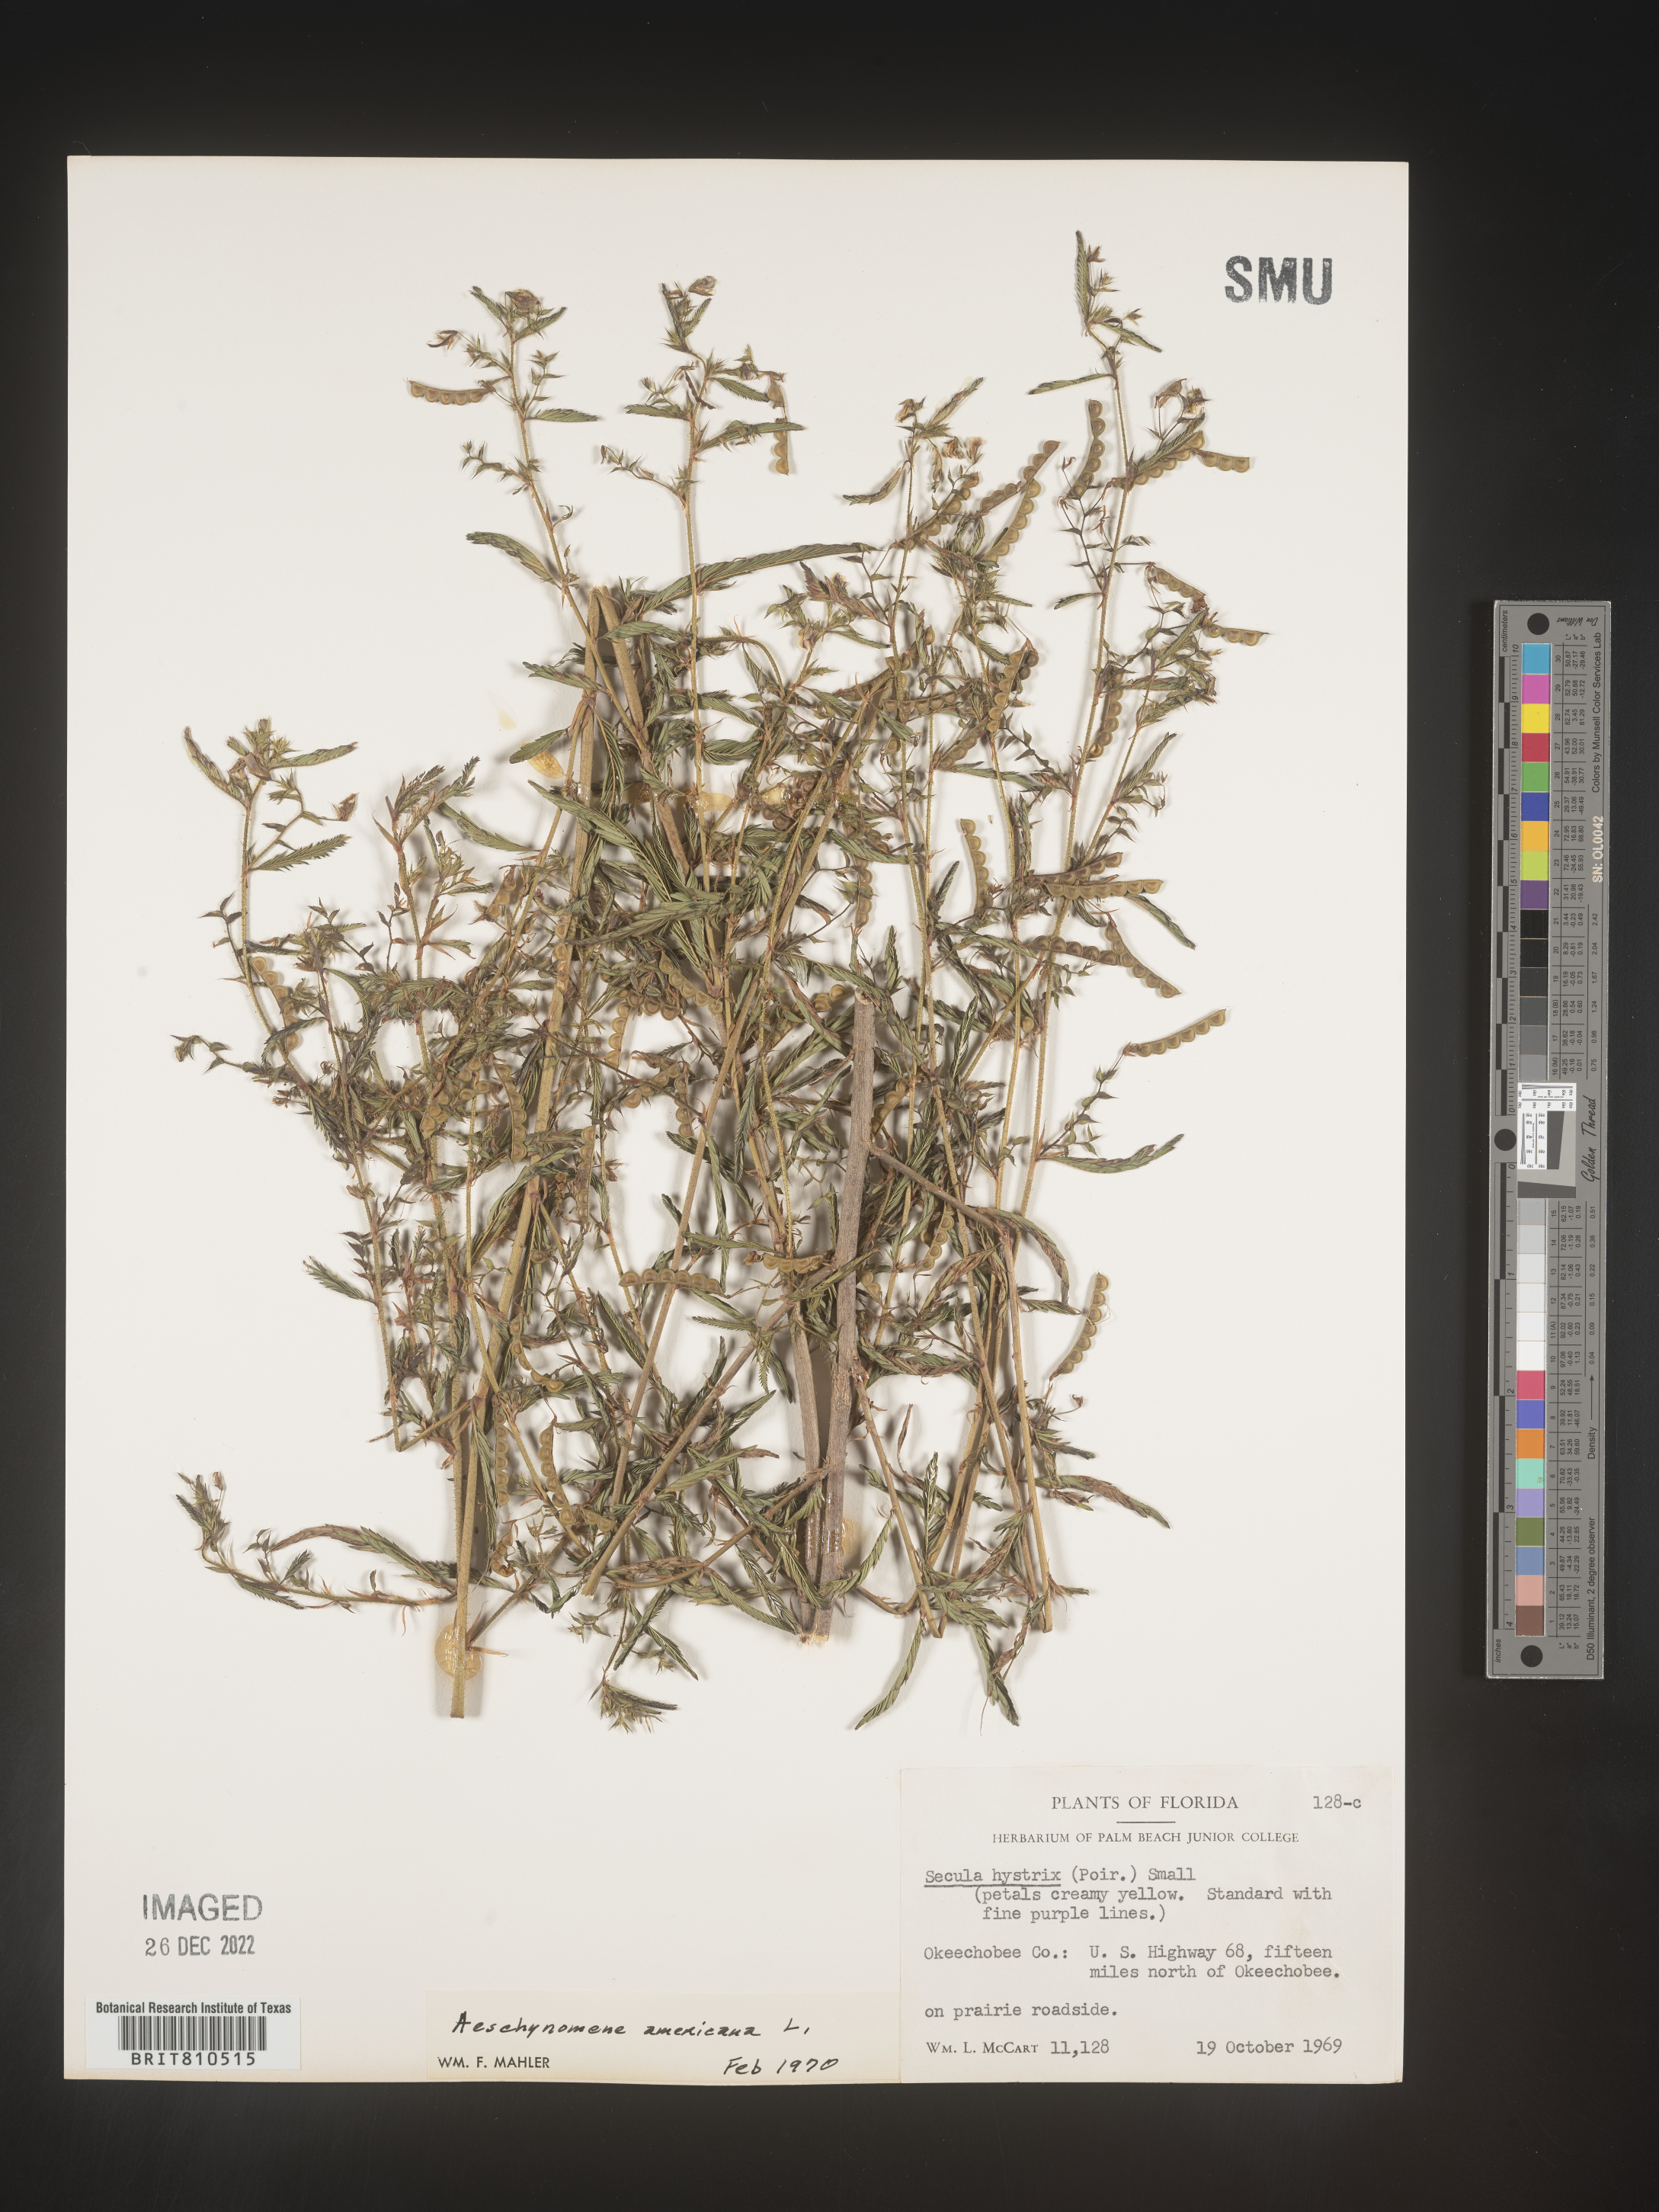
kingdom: Plantae
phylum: Tracheophyta
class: Magnoliopsida
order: Fabales
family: Fabaceae
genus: Aeschynomene
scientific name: Aeschynomene americana
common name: Joint-vetch
